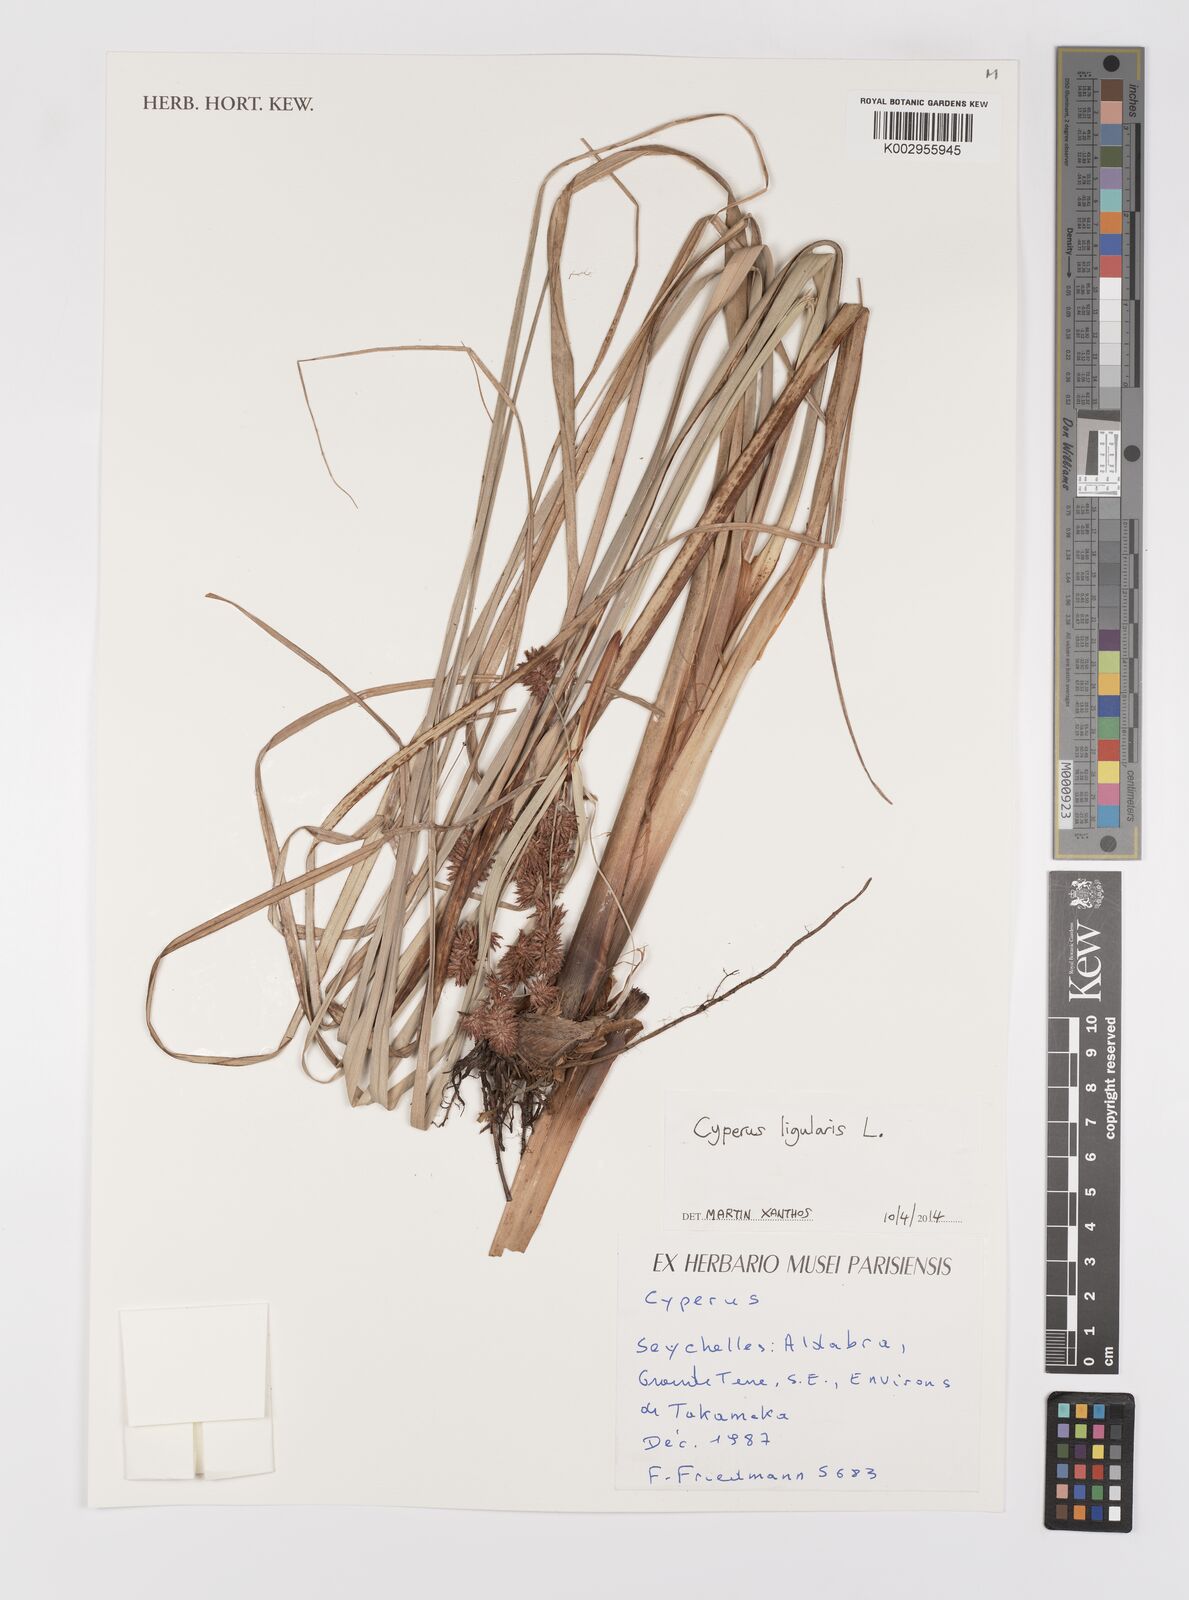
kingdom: Plantae
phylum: Tracheophyta
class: Liliopsida
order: Poales
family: Cyperaceae
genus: Cyperus
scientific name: Cyperus ligularis
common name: Swamp flat sedge
